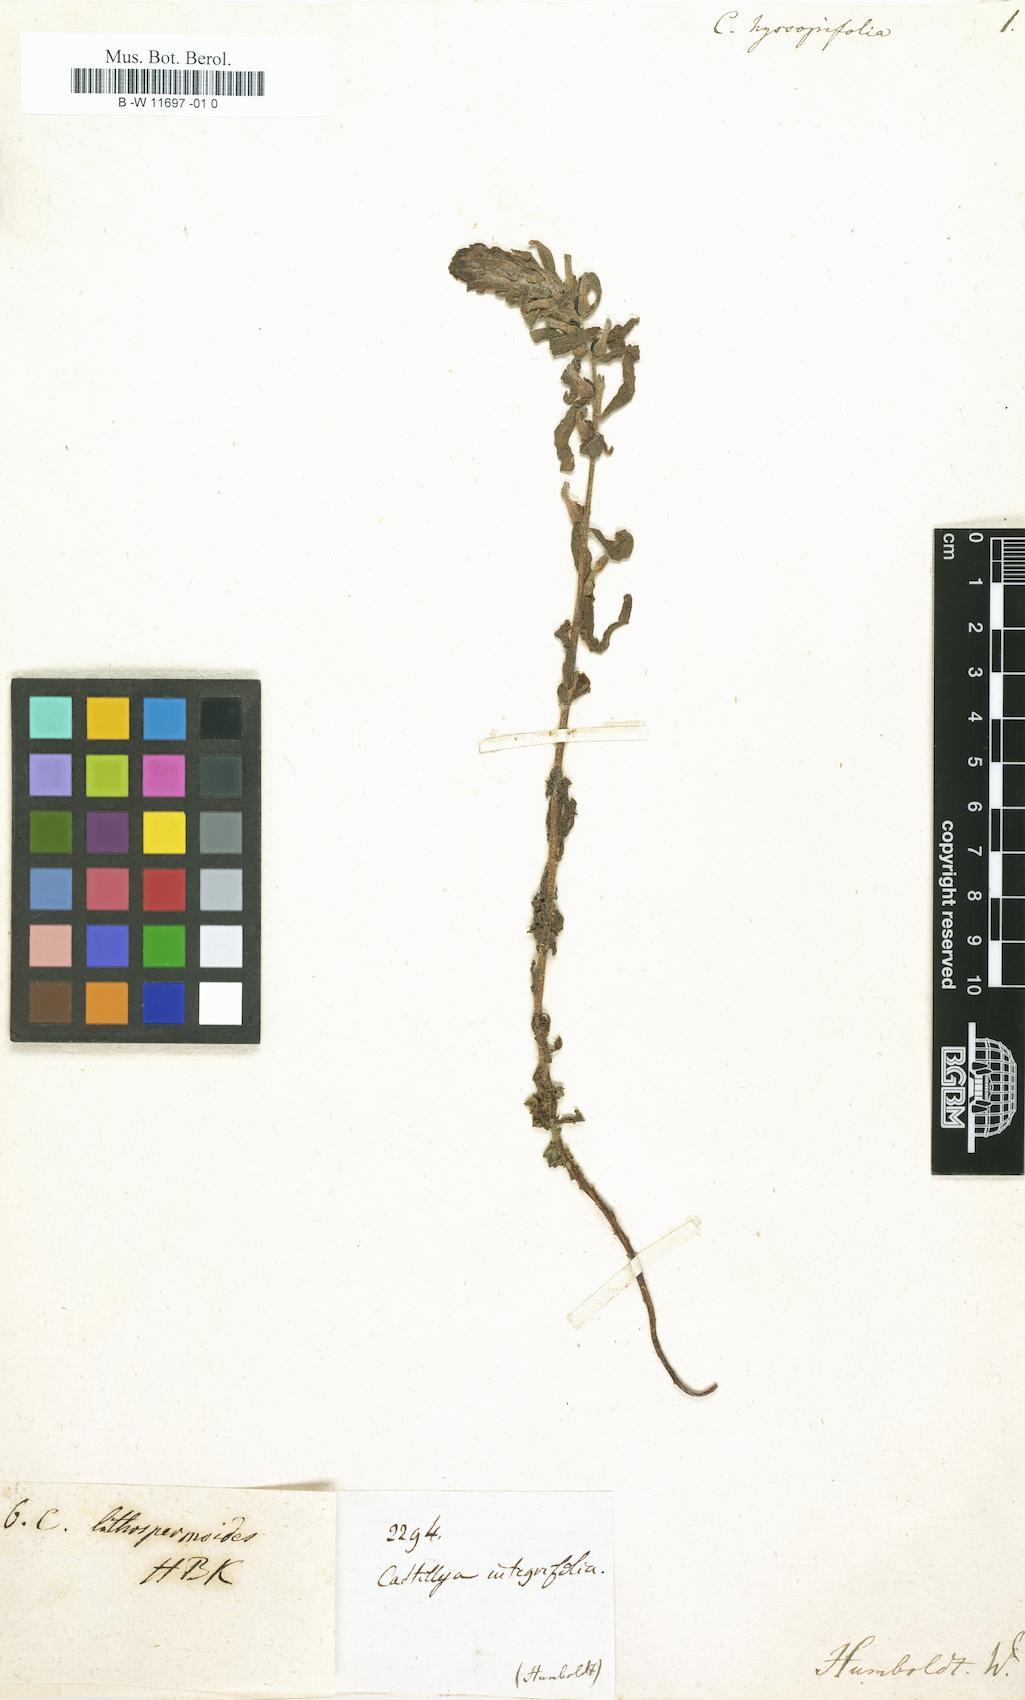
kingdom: Plantae
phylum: Tracheophyta
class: Magnoliopsida
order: Lamiales
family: Orobanchaceae
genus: Castilleja
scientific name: Castilleja arvensis
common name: Indian paintbrush
